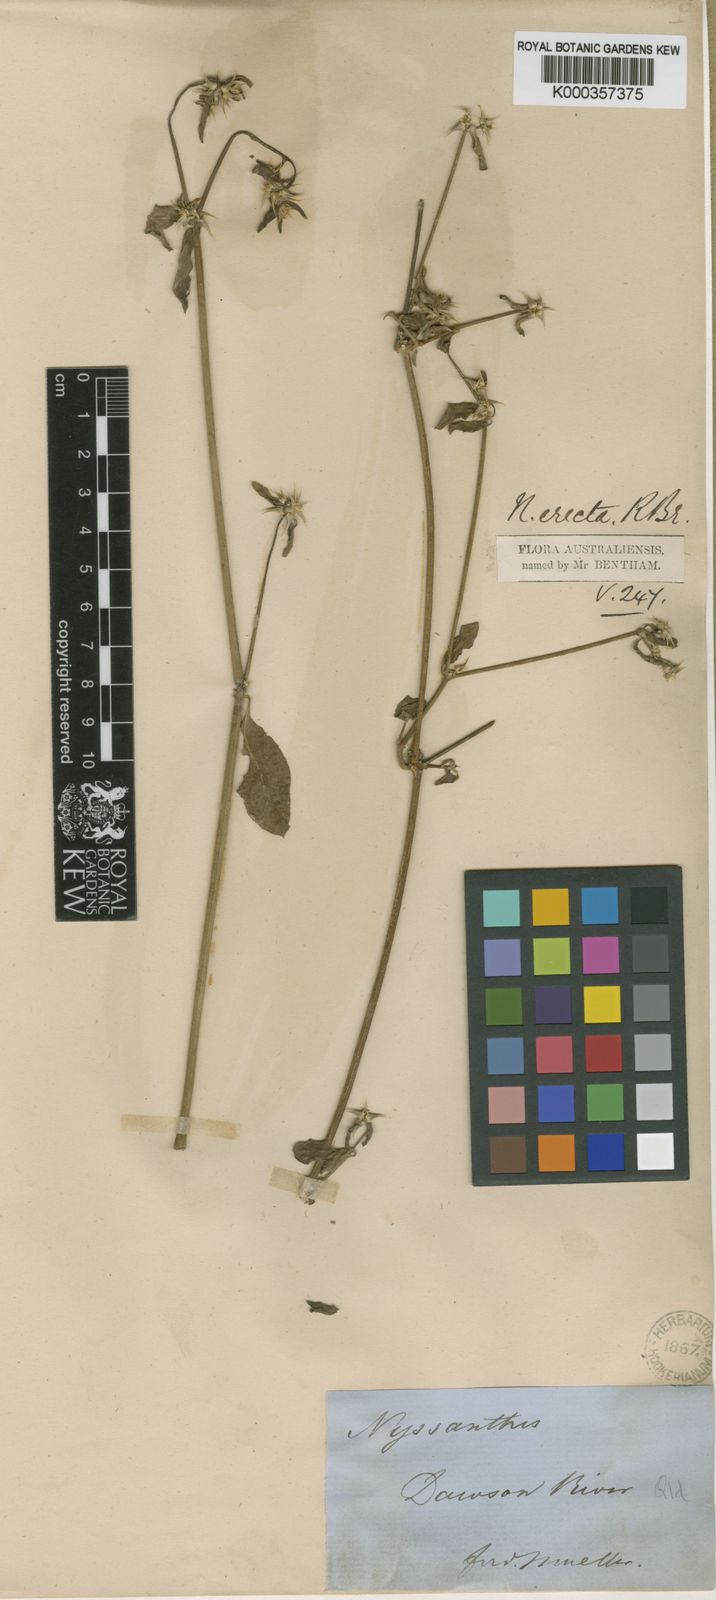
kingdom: Plantae
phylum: Tracheophyta
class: Magnoliopsida
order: Caryophyllales
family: Amaranthaceae
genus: Nyssanthes
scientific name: Nyssanthes erecta
